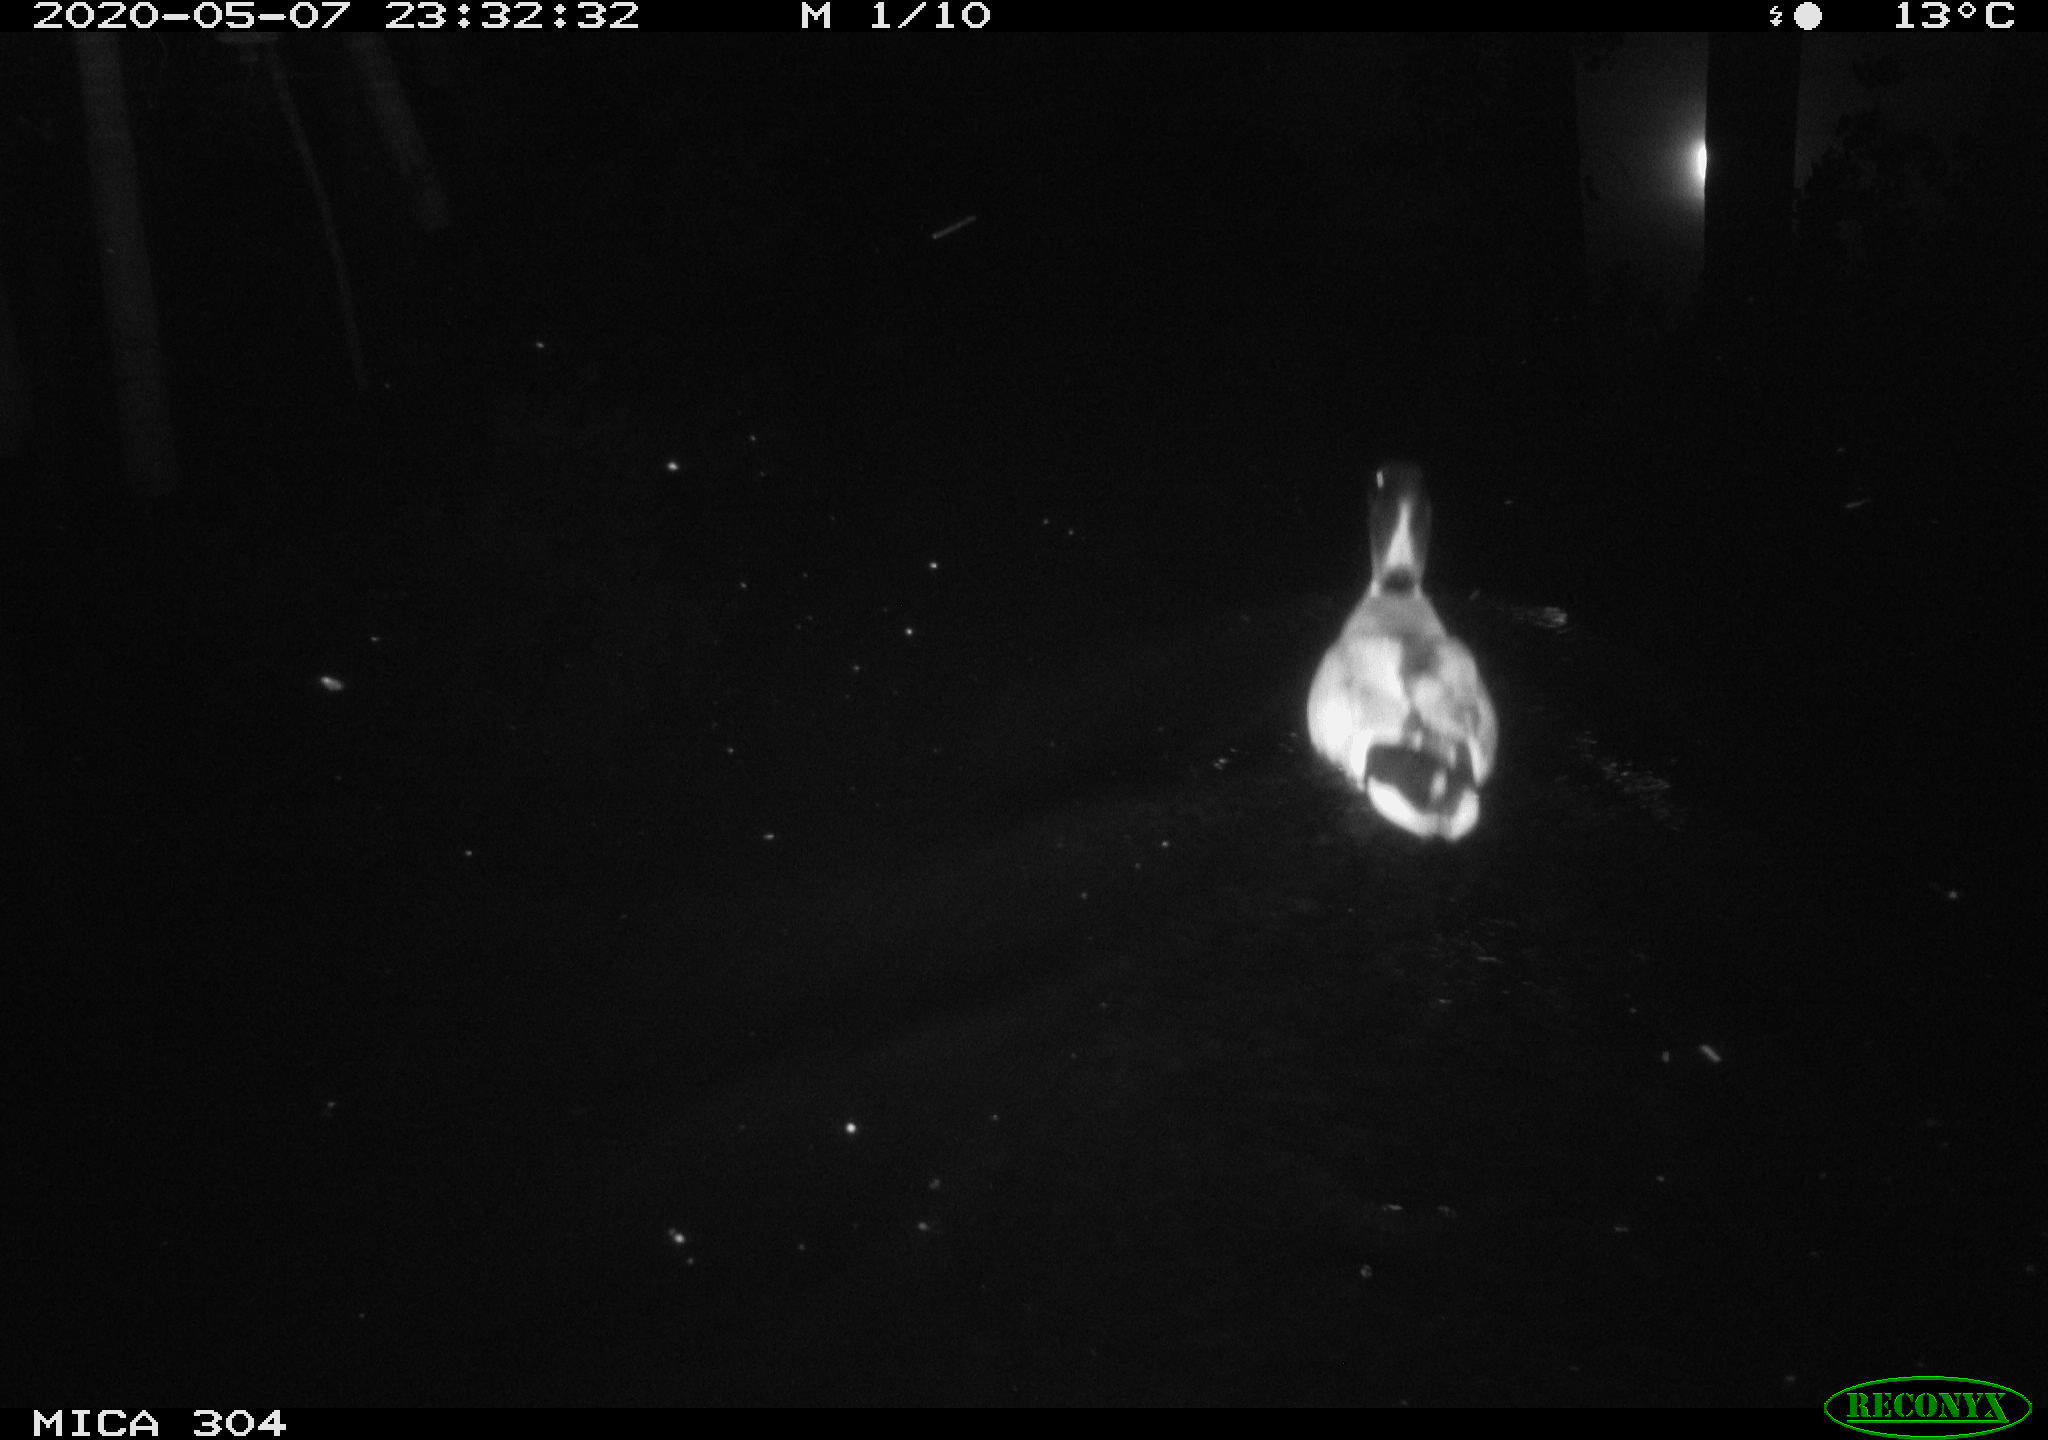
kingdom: Animalia
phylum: Chordata
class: Aves
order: Anseriformes
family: Anatidae
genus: Anas
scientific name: Anas platyrhynchos
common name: Mallard
